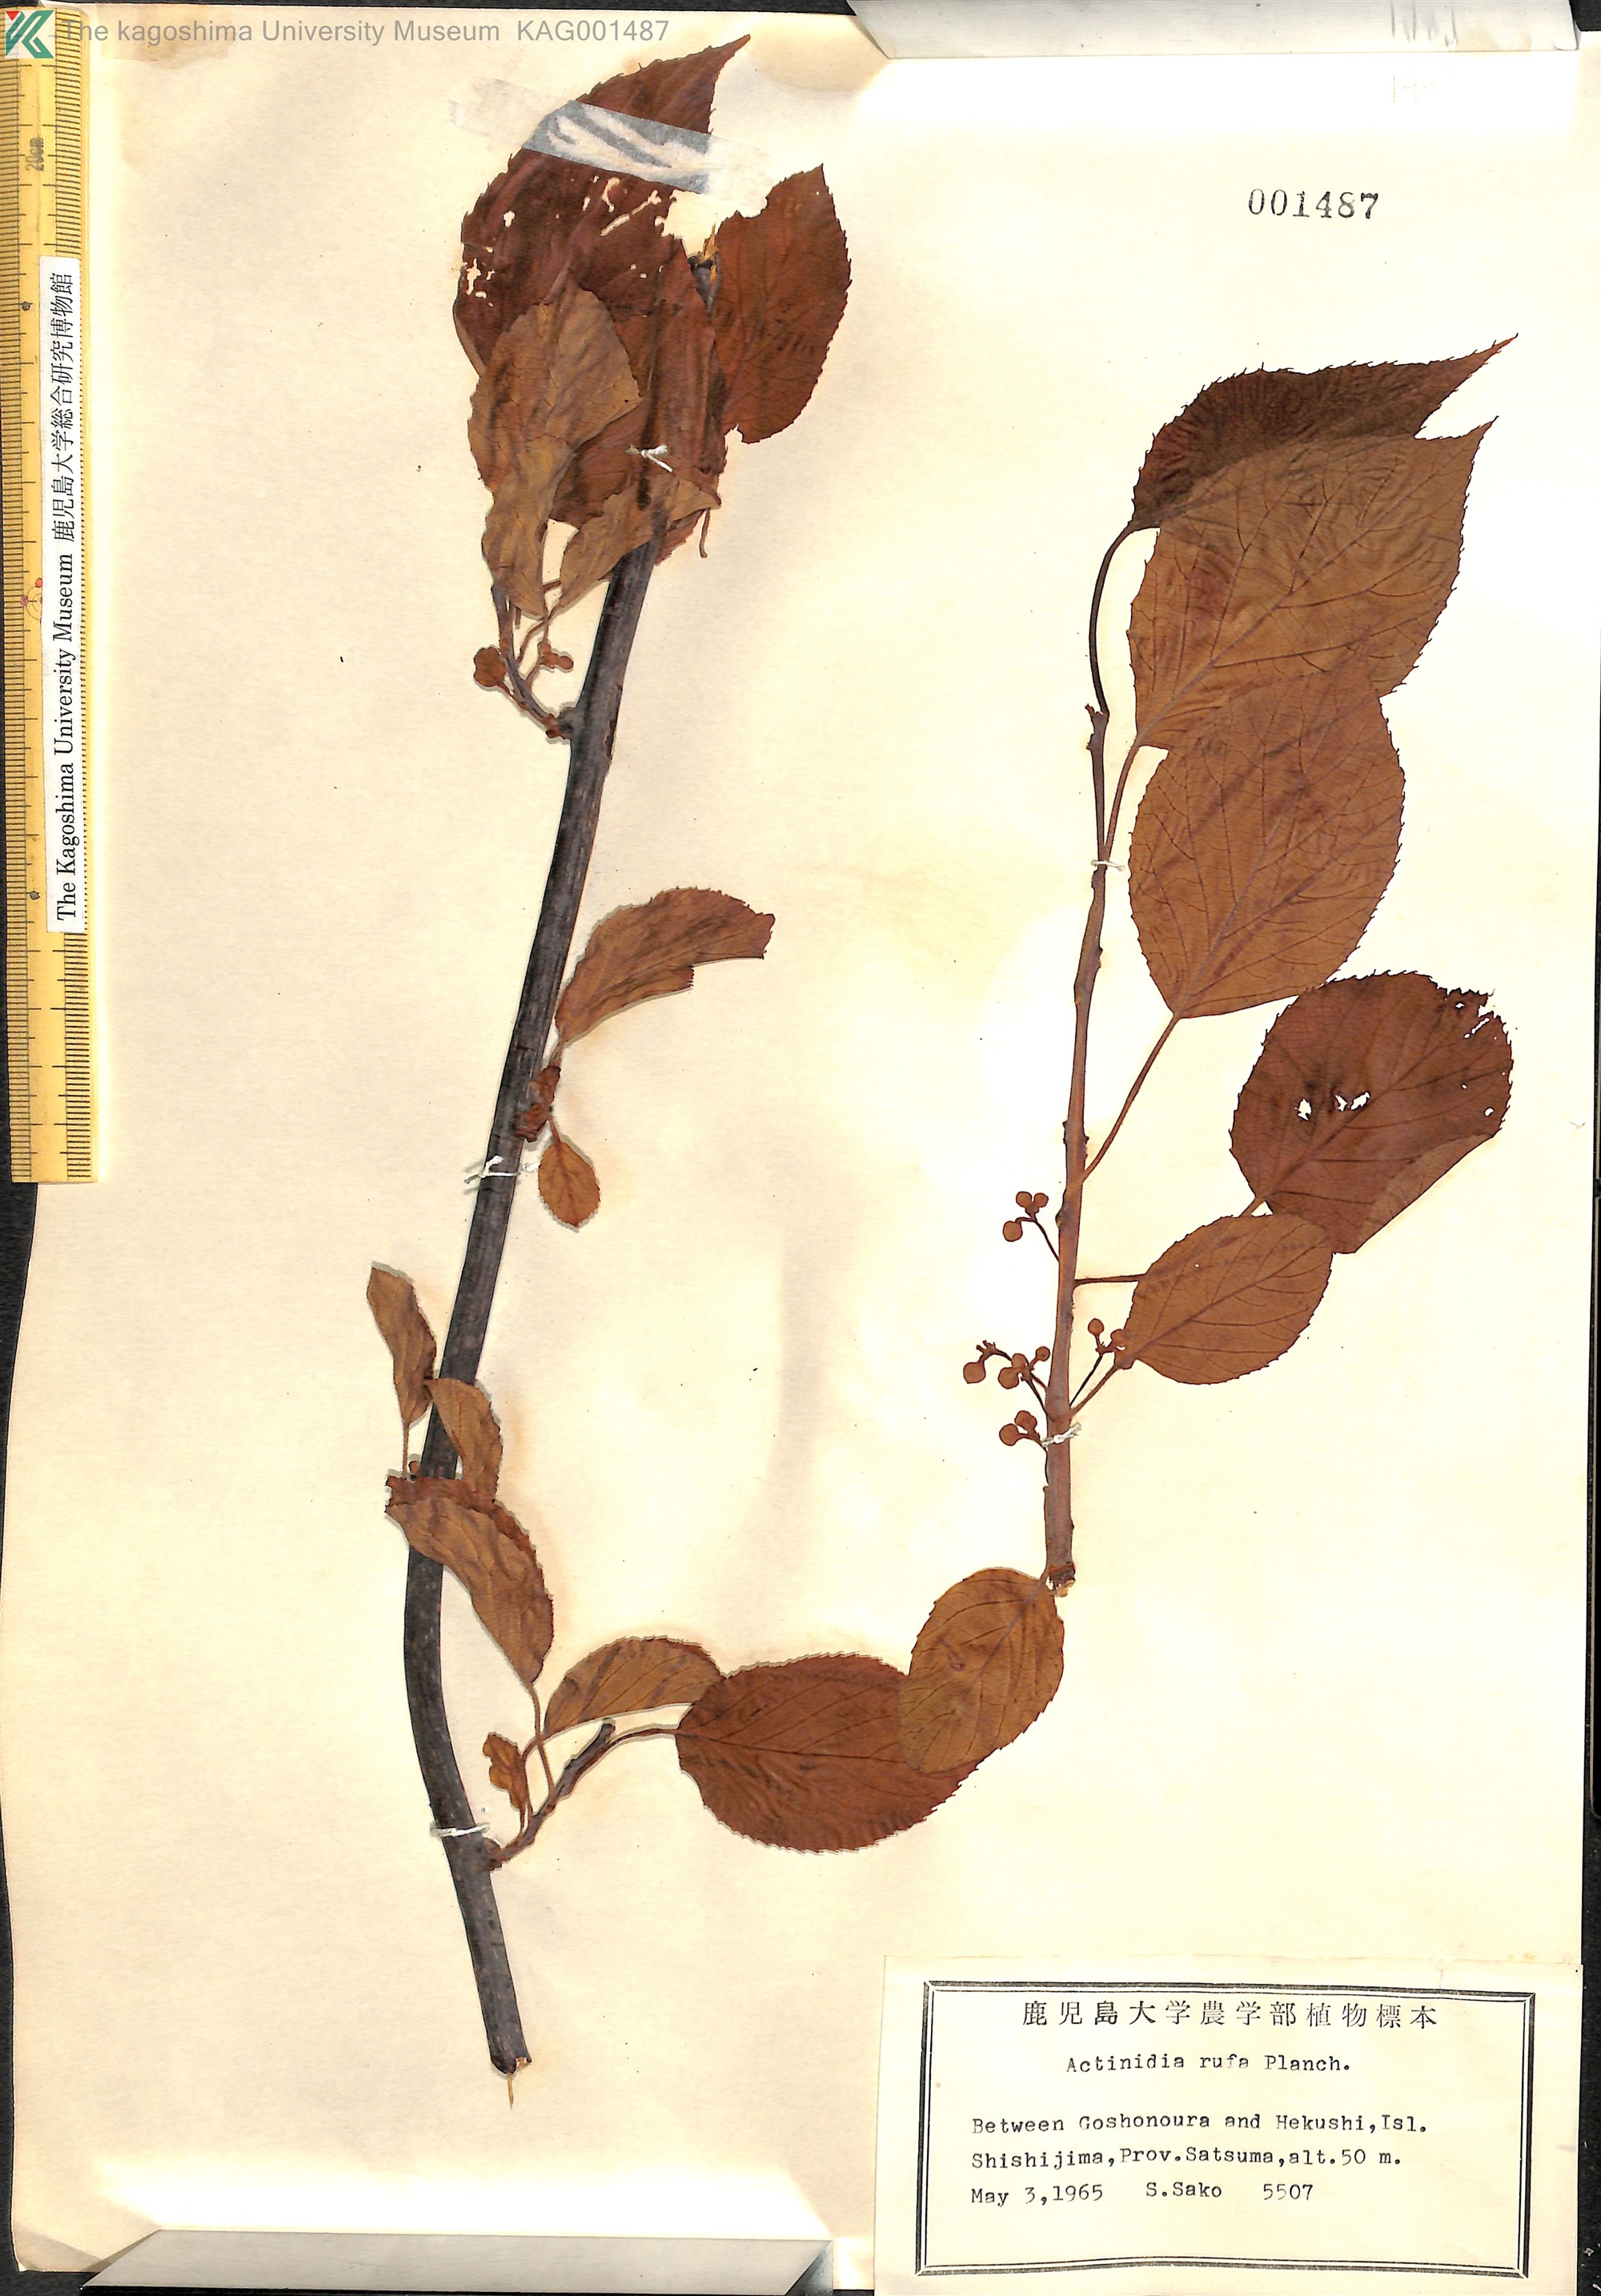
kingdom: Plantae
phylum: Tracheophyta
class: Magnoliopsida
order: Ericales
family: Actinidiaceae
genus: Actinidia
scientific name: Actinidia rufa
